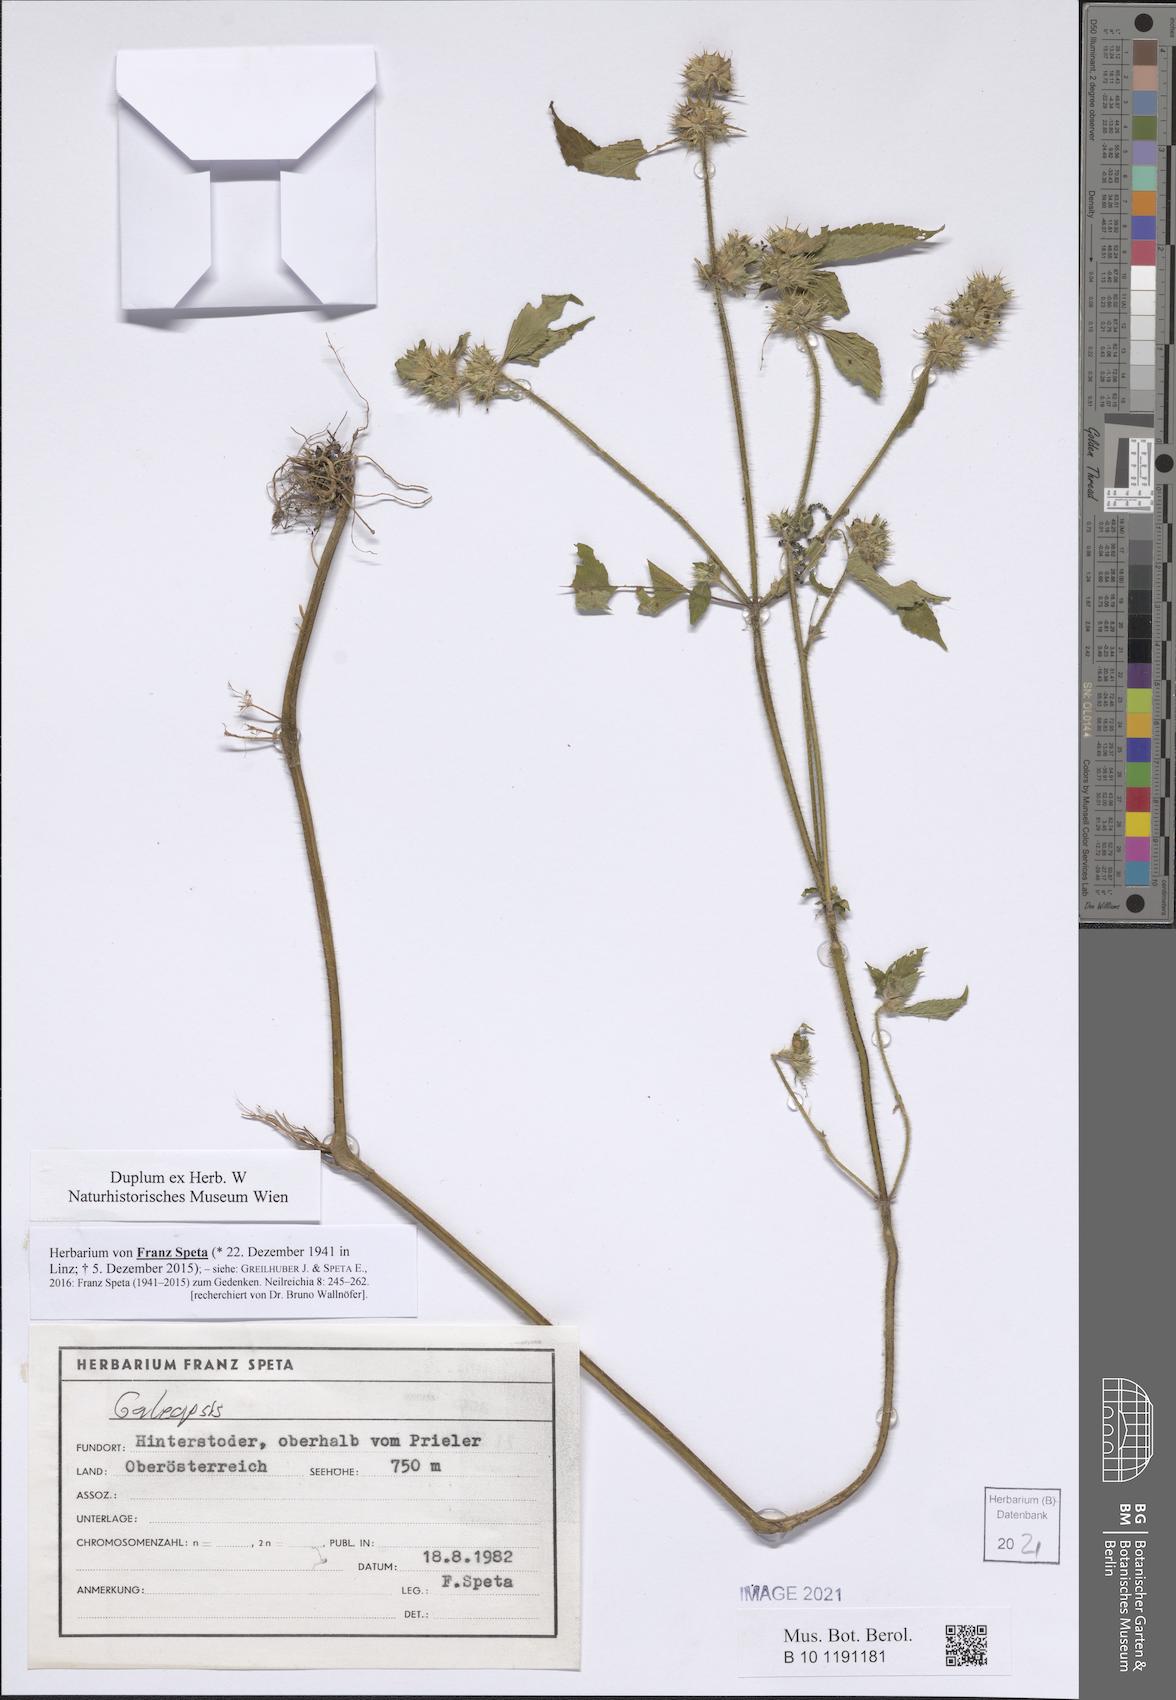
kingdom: Plantae
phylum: Tracheophyta
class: Magnoliopsida
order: Lamiales
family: Lamiaceae
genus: Galeopsis
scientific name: Galeopsis
